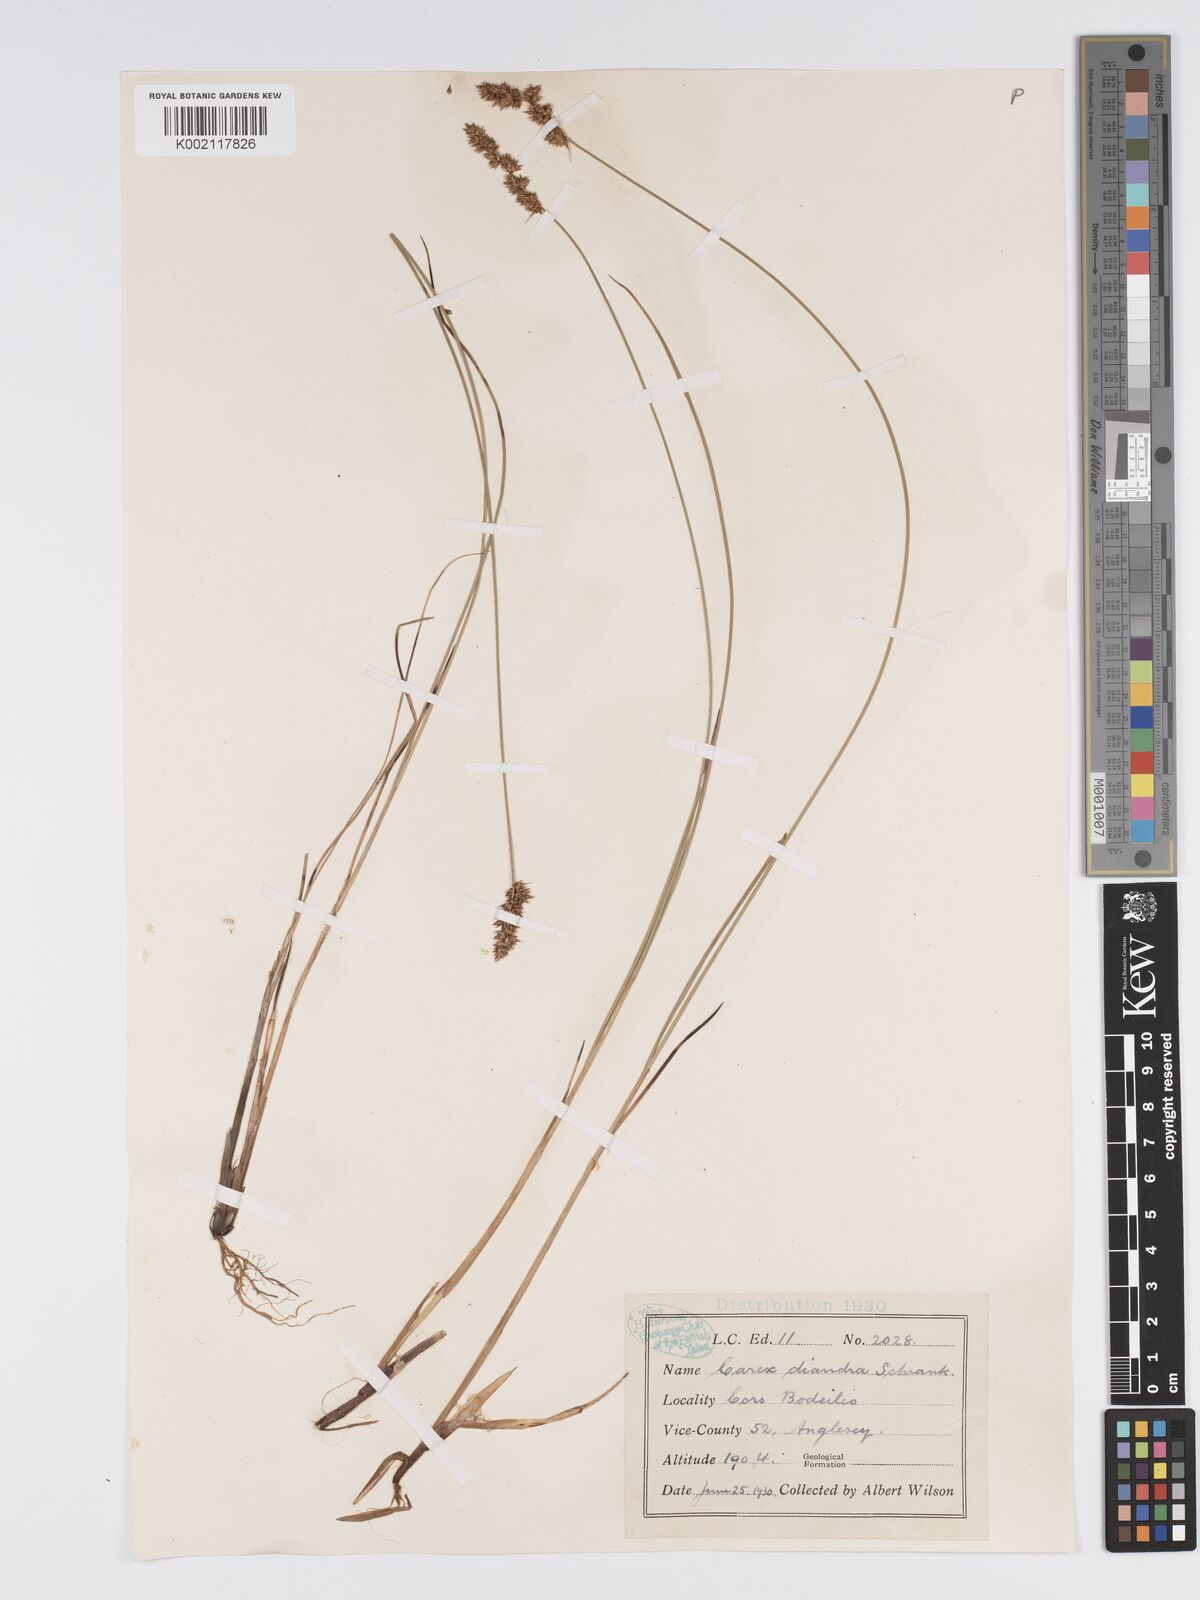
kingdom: Plantae
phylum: Tracheophyta
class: Liliopsida
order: Poales
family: Cyperaceae
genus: Carex
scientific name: Carex diandra
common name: Lesser tussock-sedge
